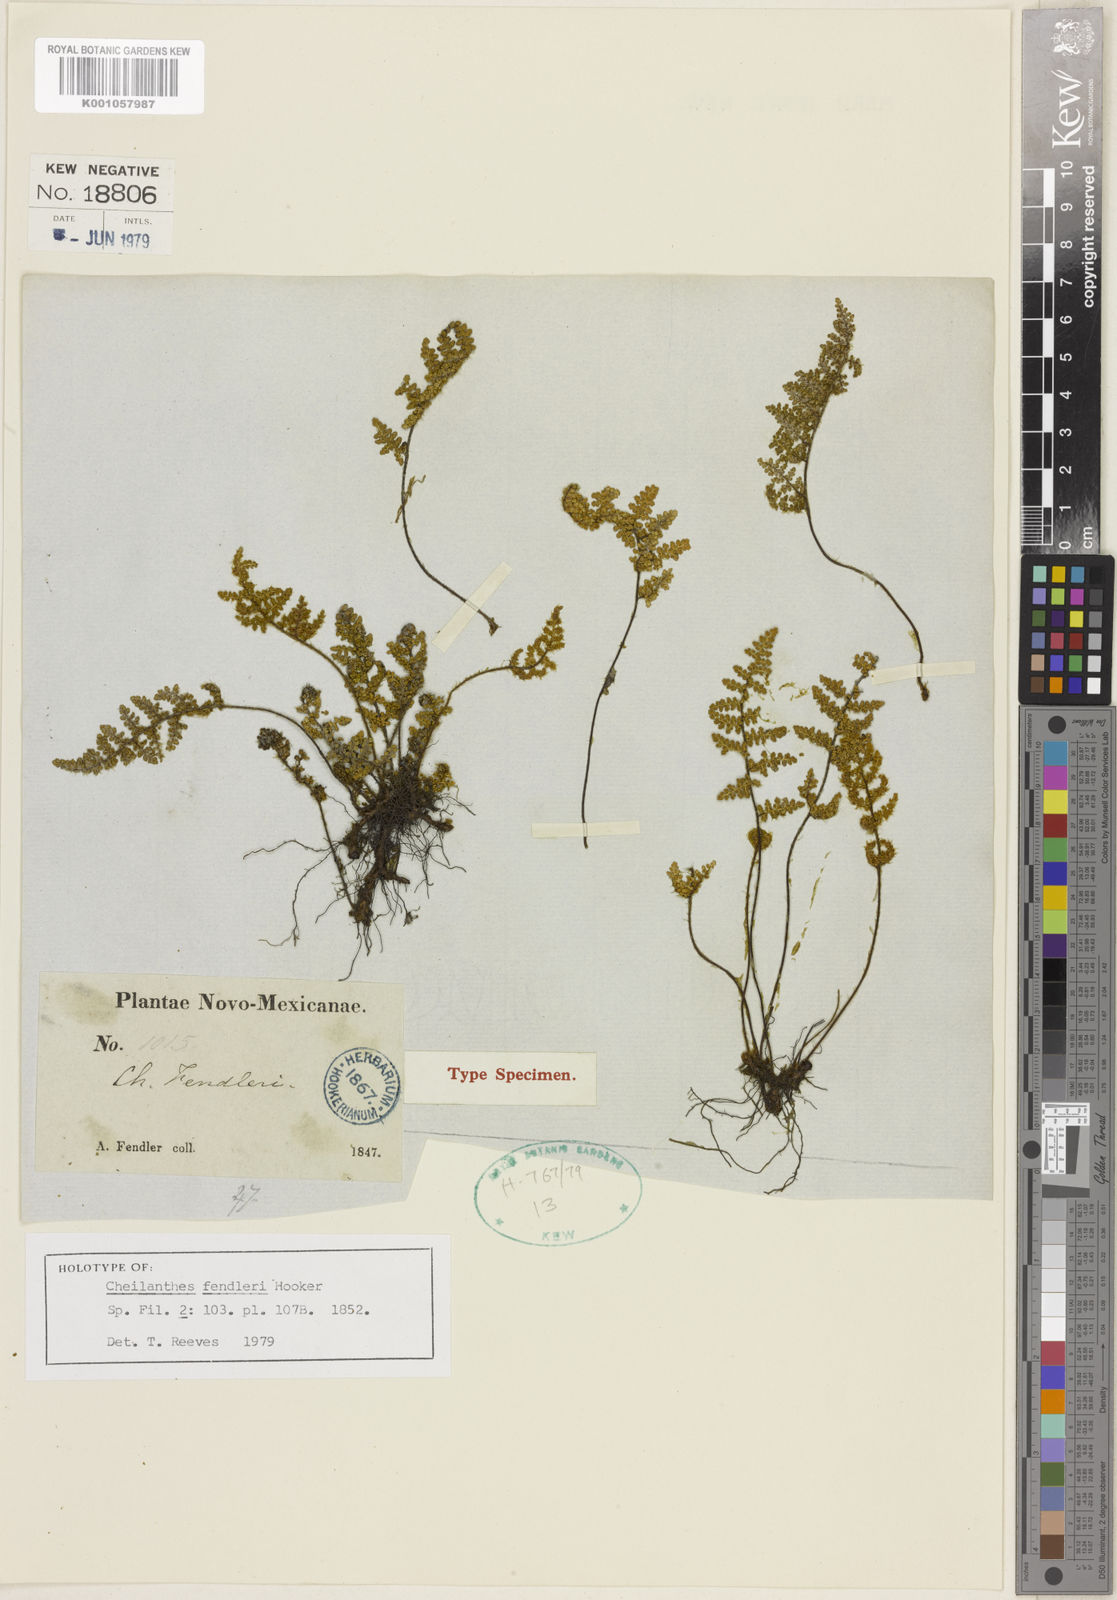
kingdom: Plantae
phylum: Tracheophyta
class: Polypodiopsida
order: Polypodiales
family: Pteridaceae
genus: Myriopteris
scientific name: Myriopteris fendleri
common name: Fendler's lip fern
